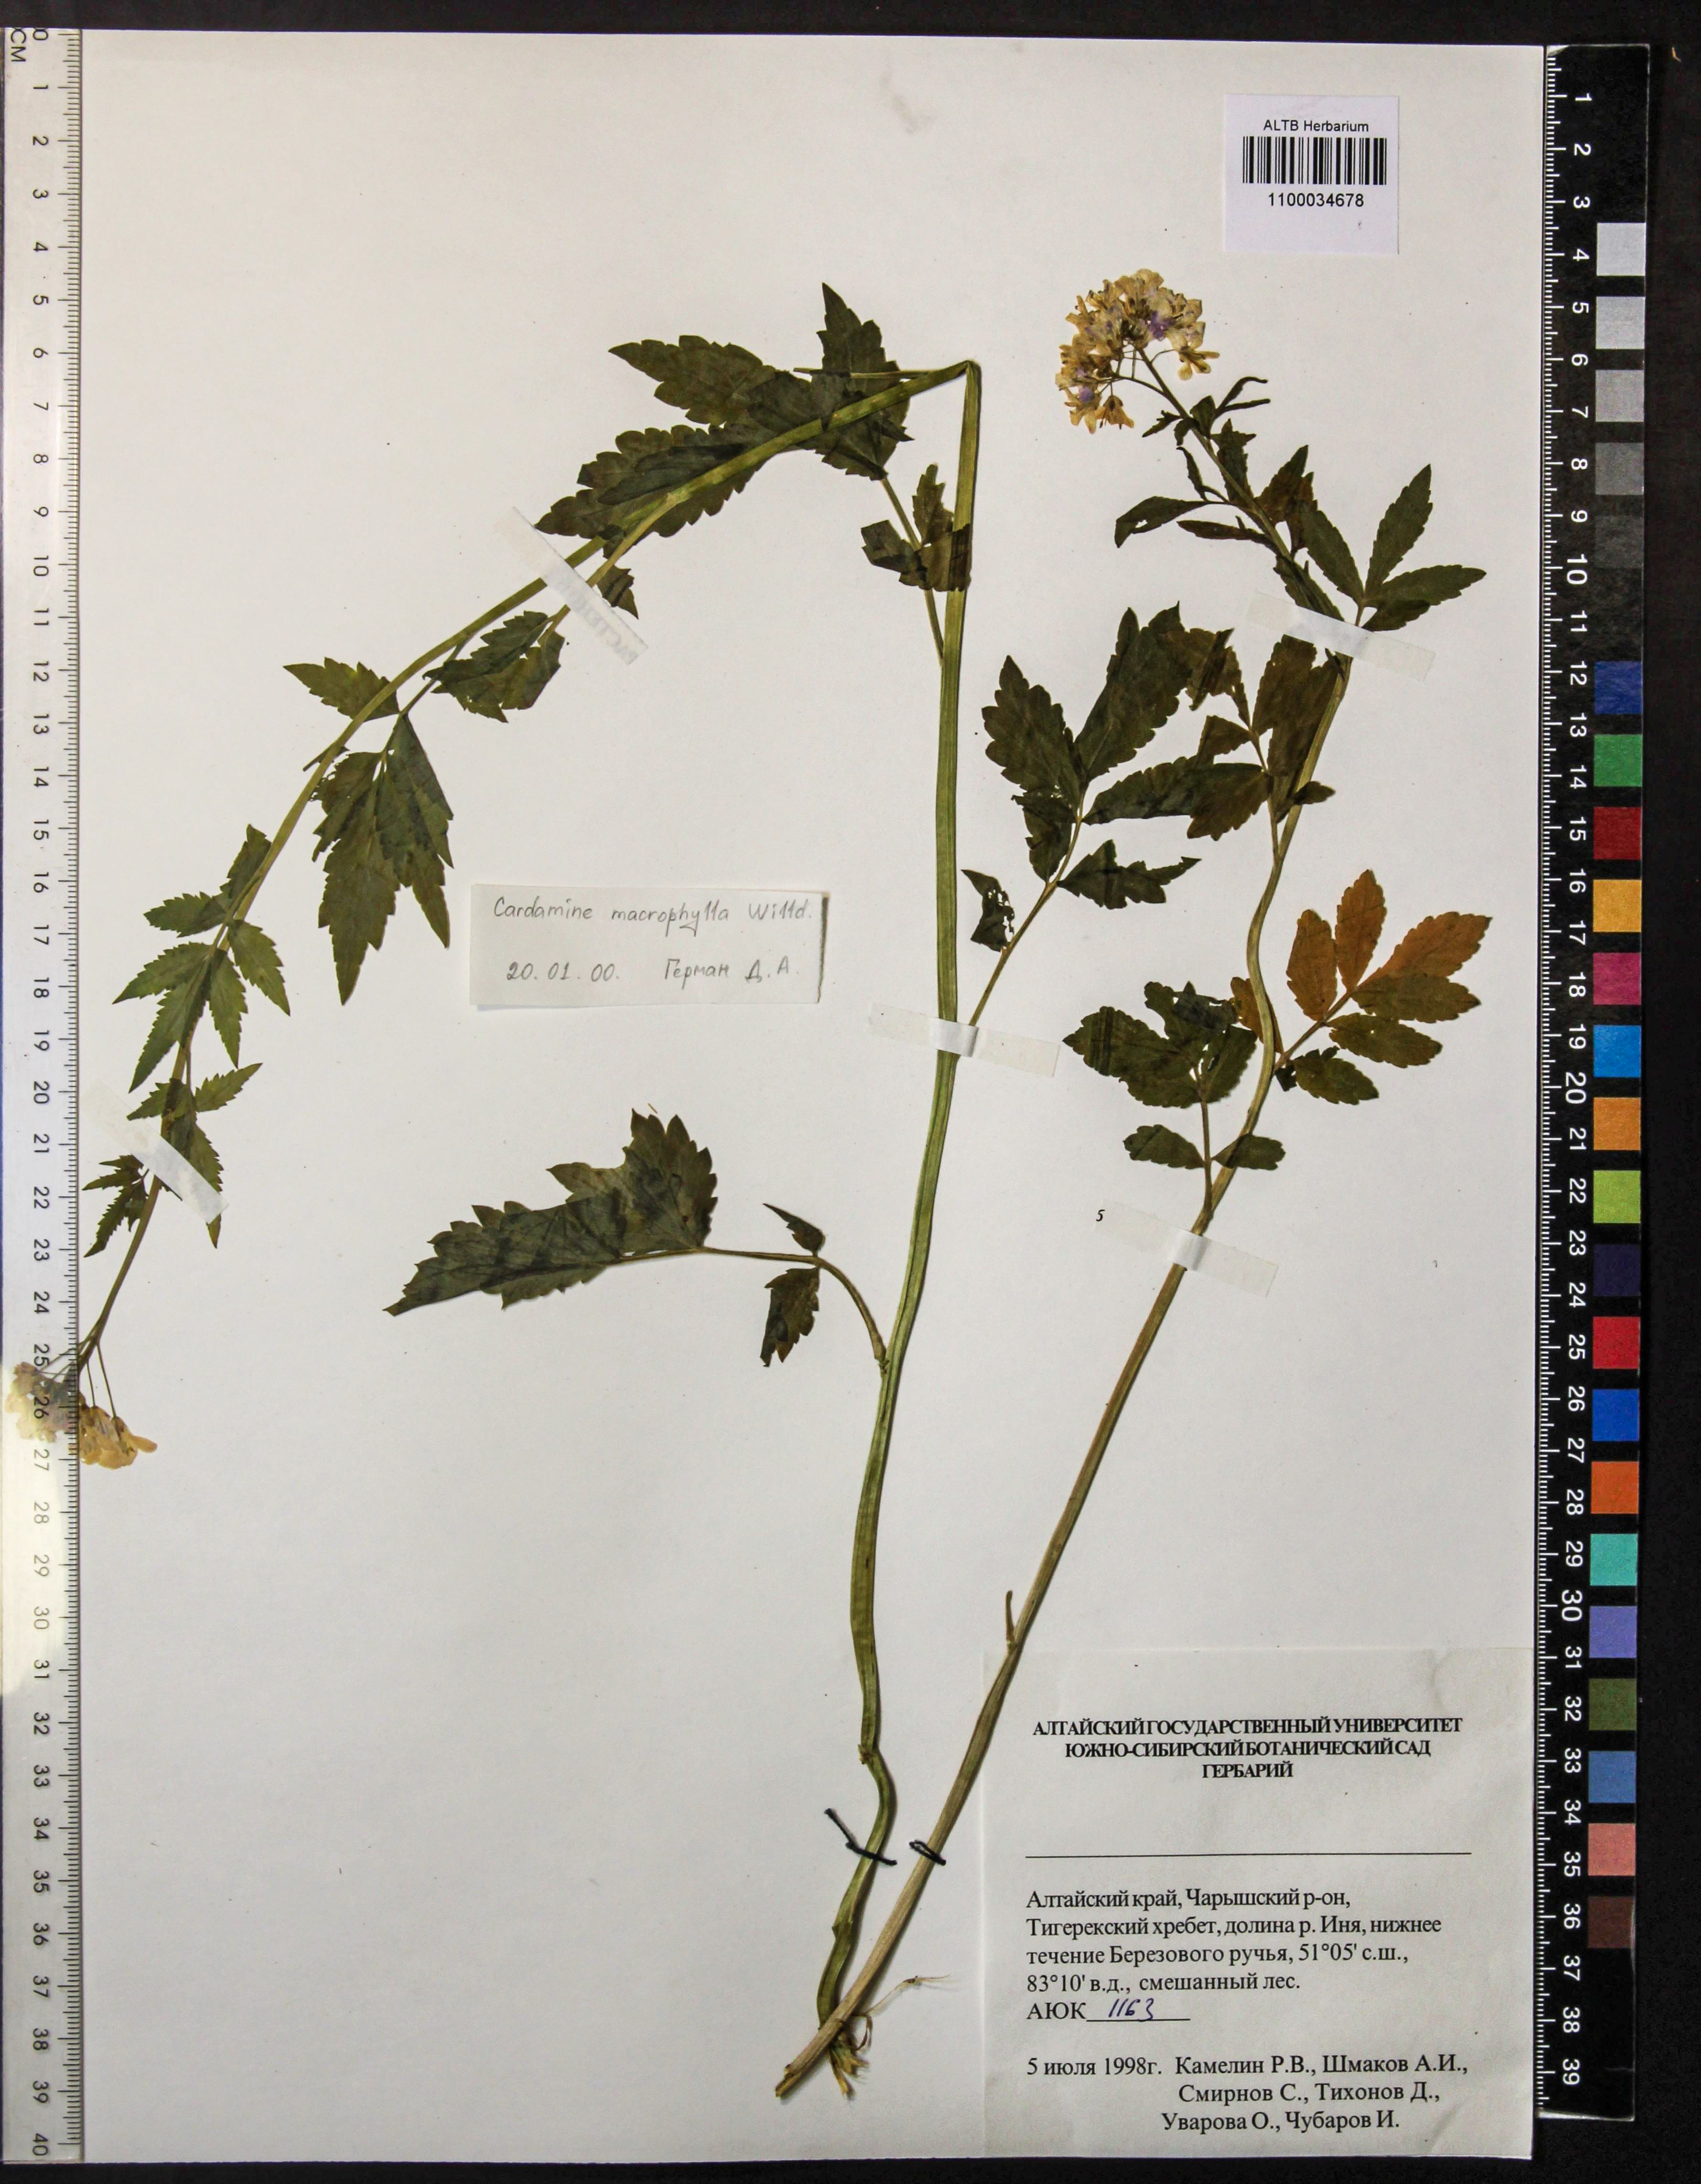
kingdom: Plantae
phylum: Tracheophyta
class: Magnoliopsida
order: Brassicales
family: Brassicaceae
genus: Cardamine
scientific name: Cardamine macrophylla
